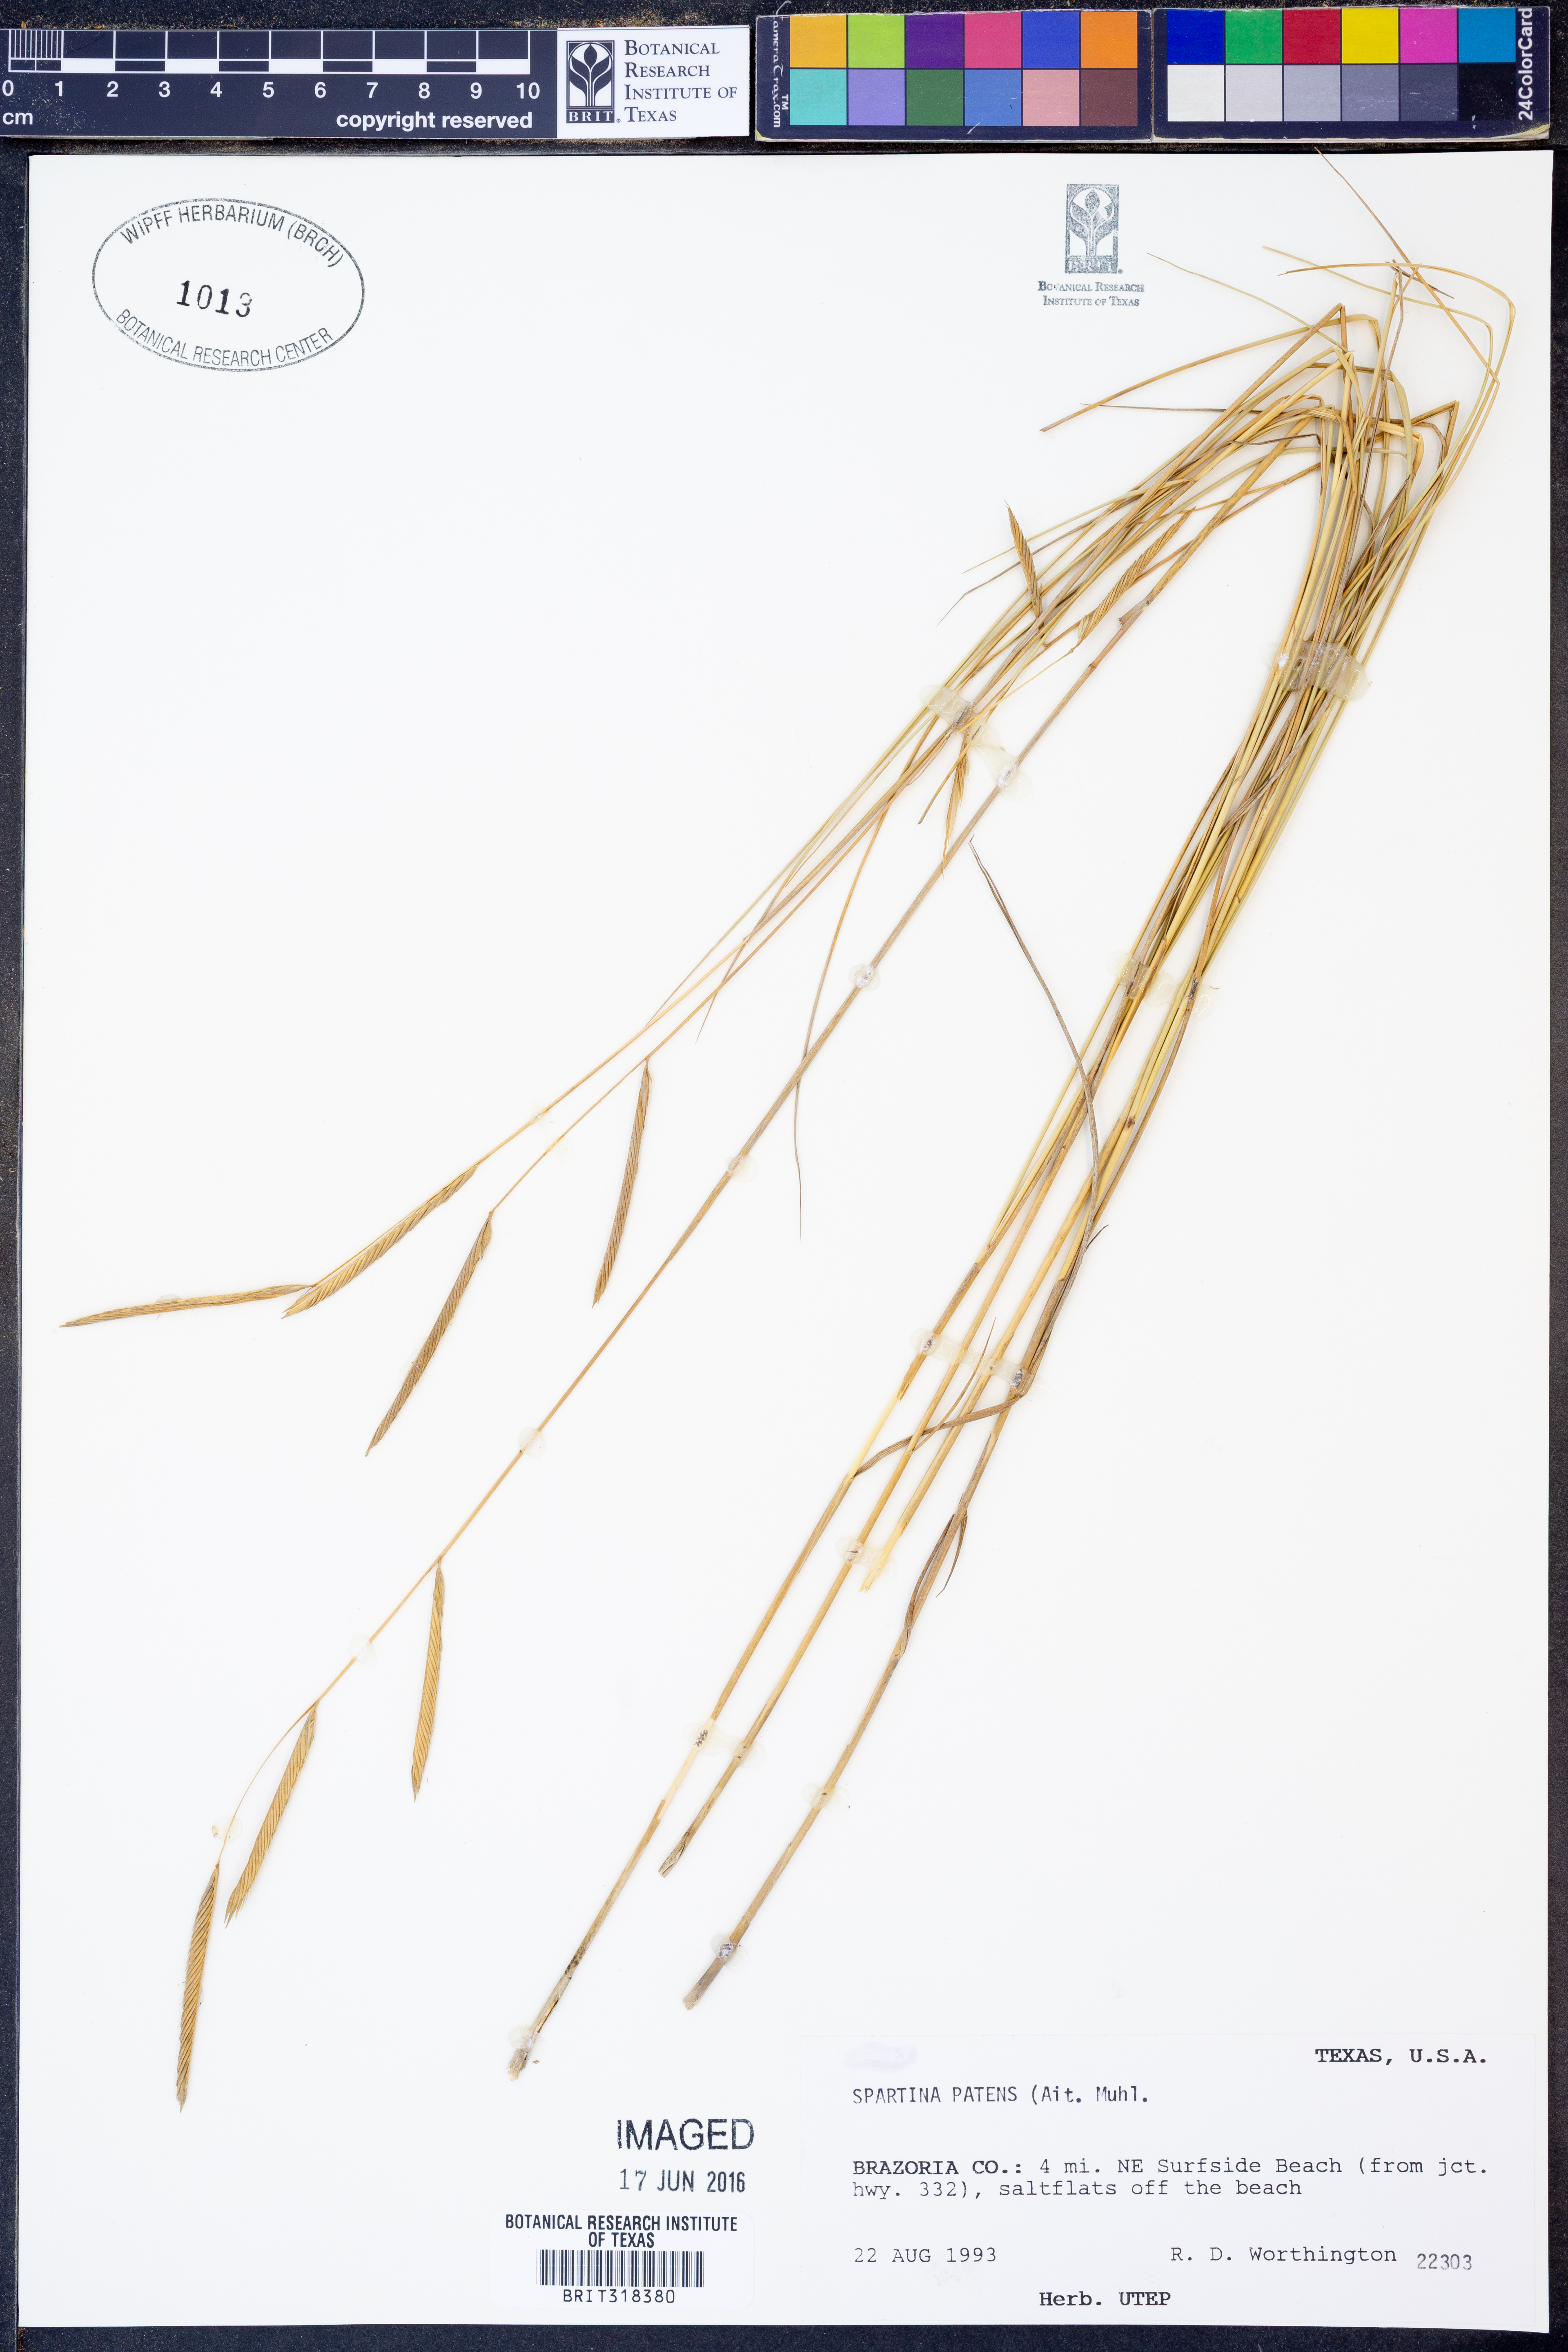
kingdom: Plantae
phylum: Tracheophyta
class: Liliopsida
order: Poales
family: Poaceae
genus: Sporobolus
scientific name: Sporobolus pumilus
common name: Highwater grass
